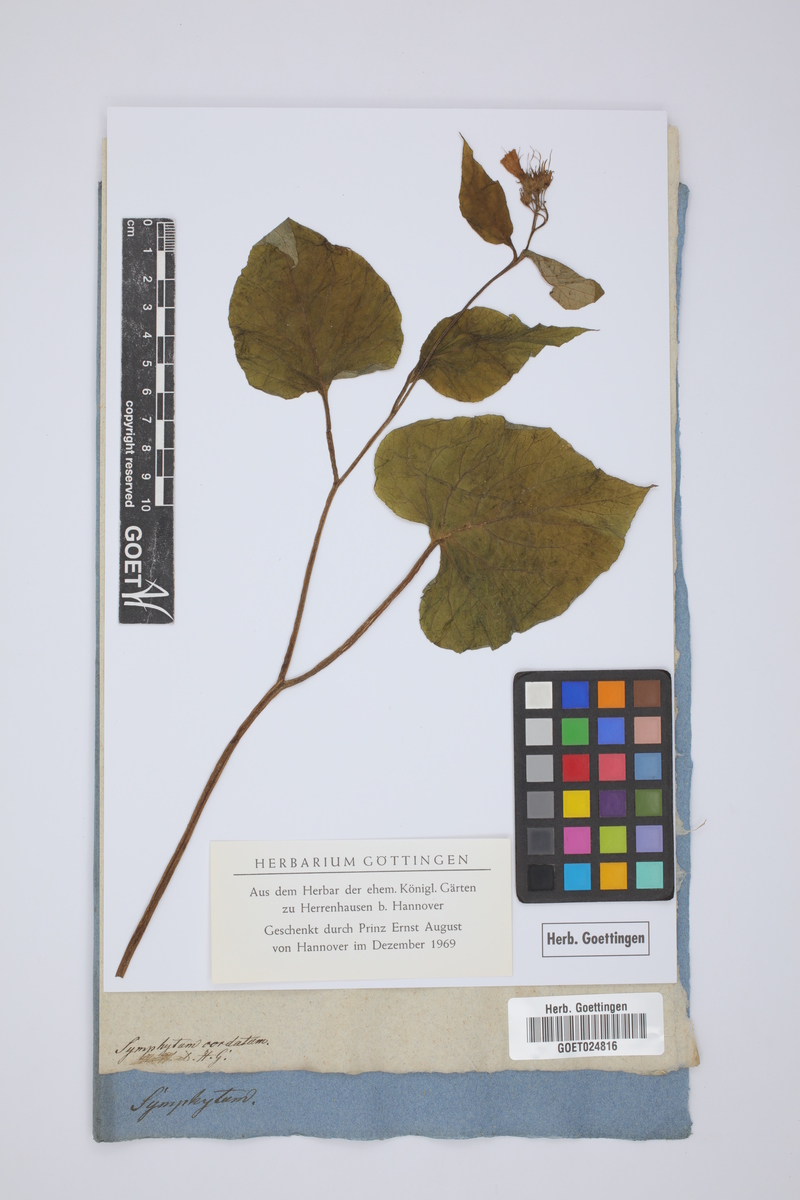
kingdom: Plantae
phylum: Tracheophyta
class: Magnoliopsida
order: Boraginales
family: Boraginaceae
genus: Symphytum
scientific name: Symphytum cordatum
